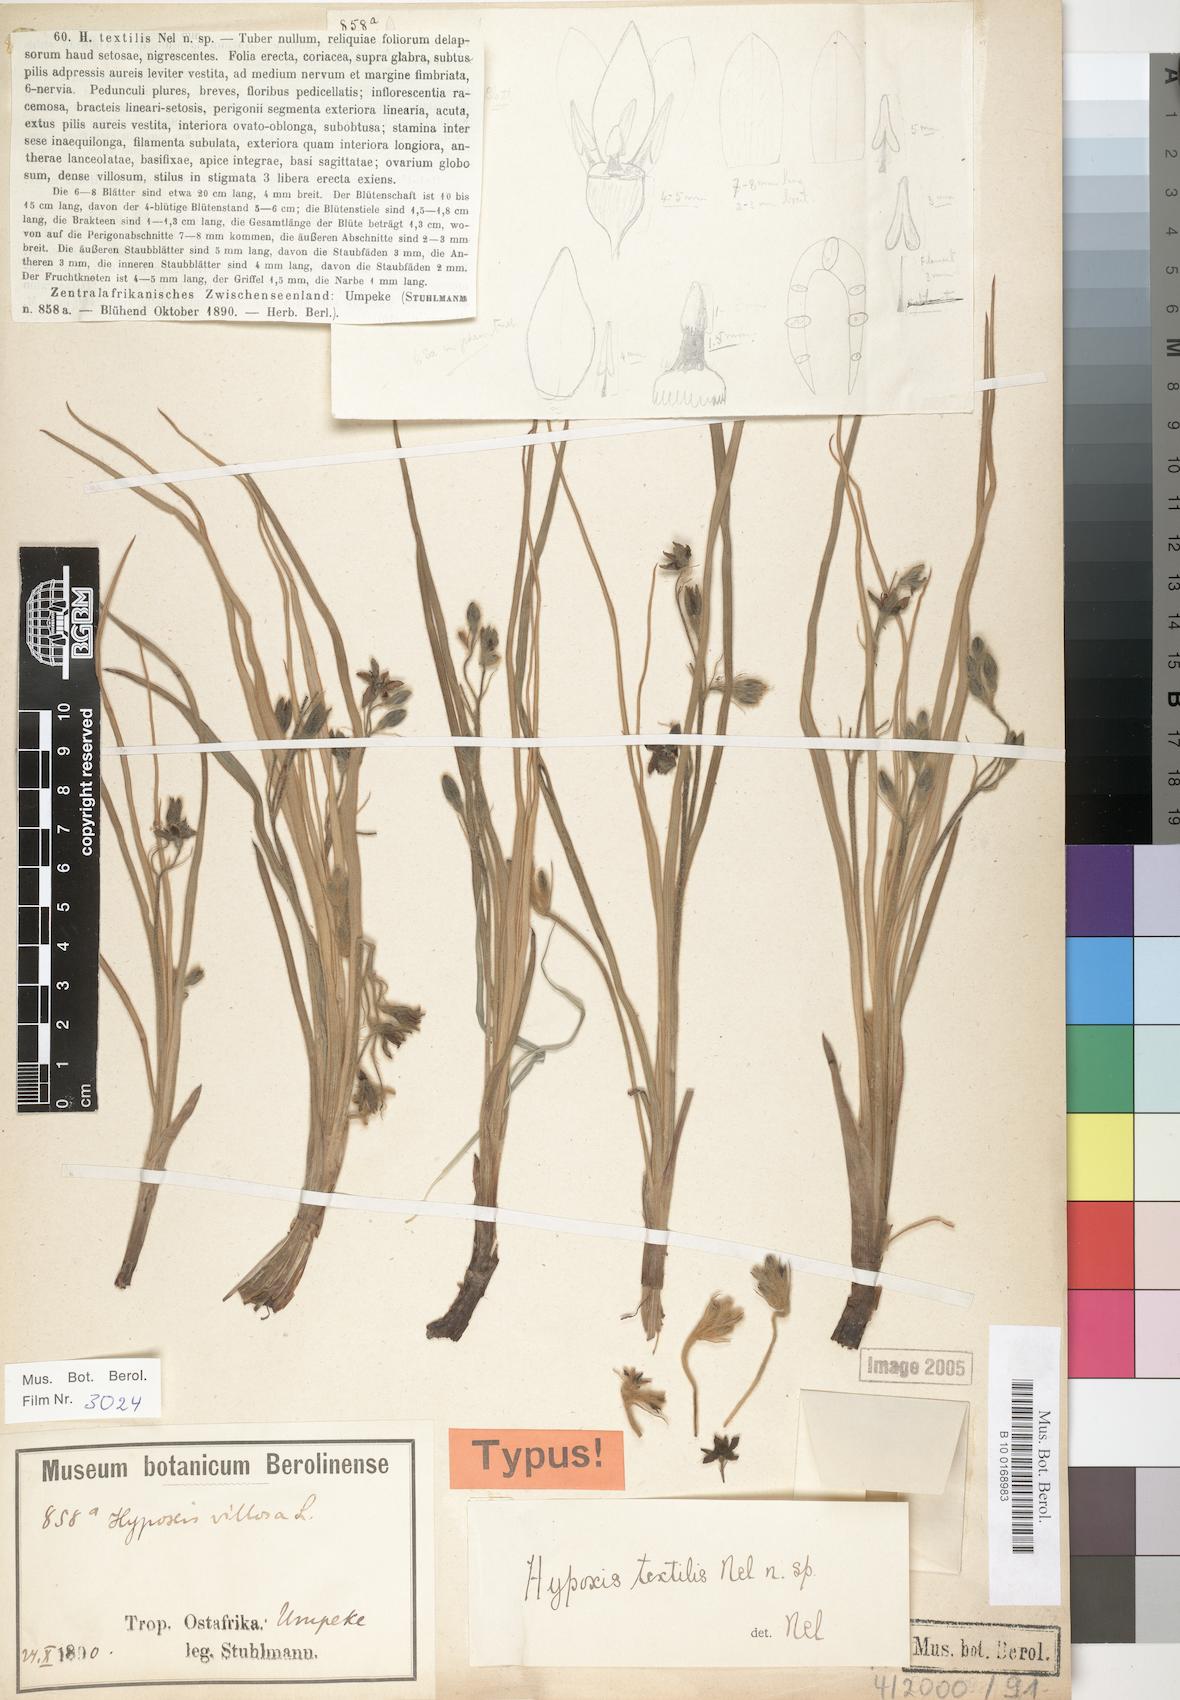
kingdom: Plantae
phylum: Tracheophyta
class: Liliopsida
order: Asparagales
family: Hypoxidaceae
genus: Hypoxis
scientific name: Hypoxis urceolata
